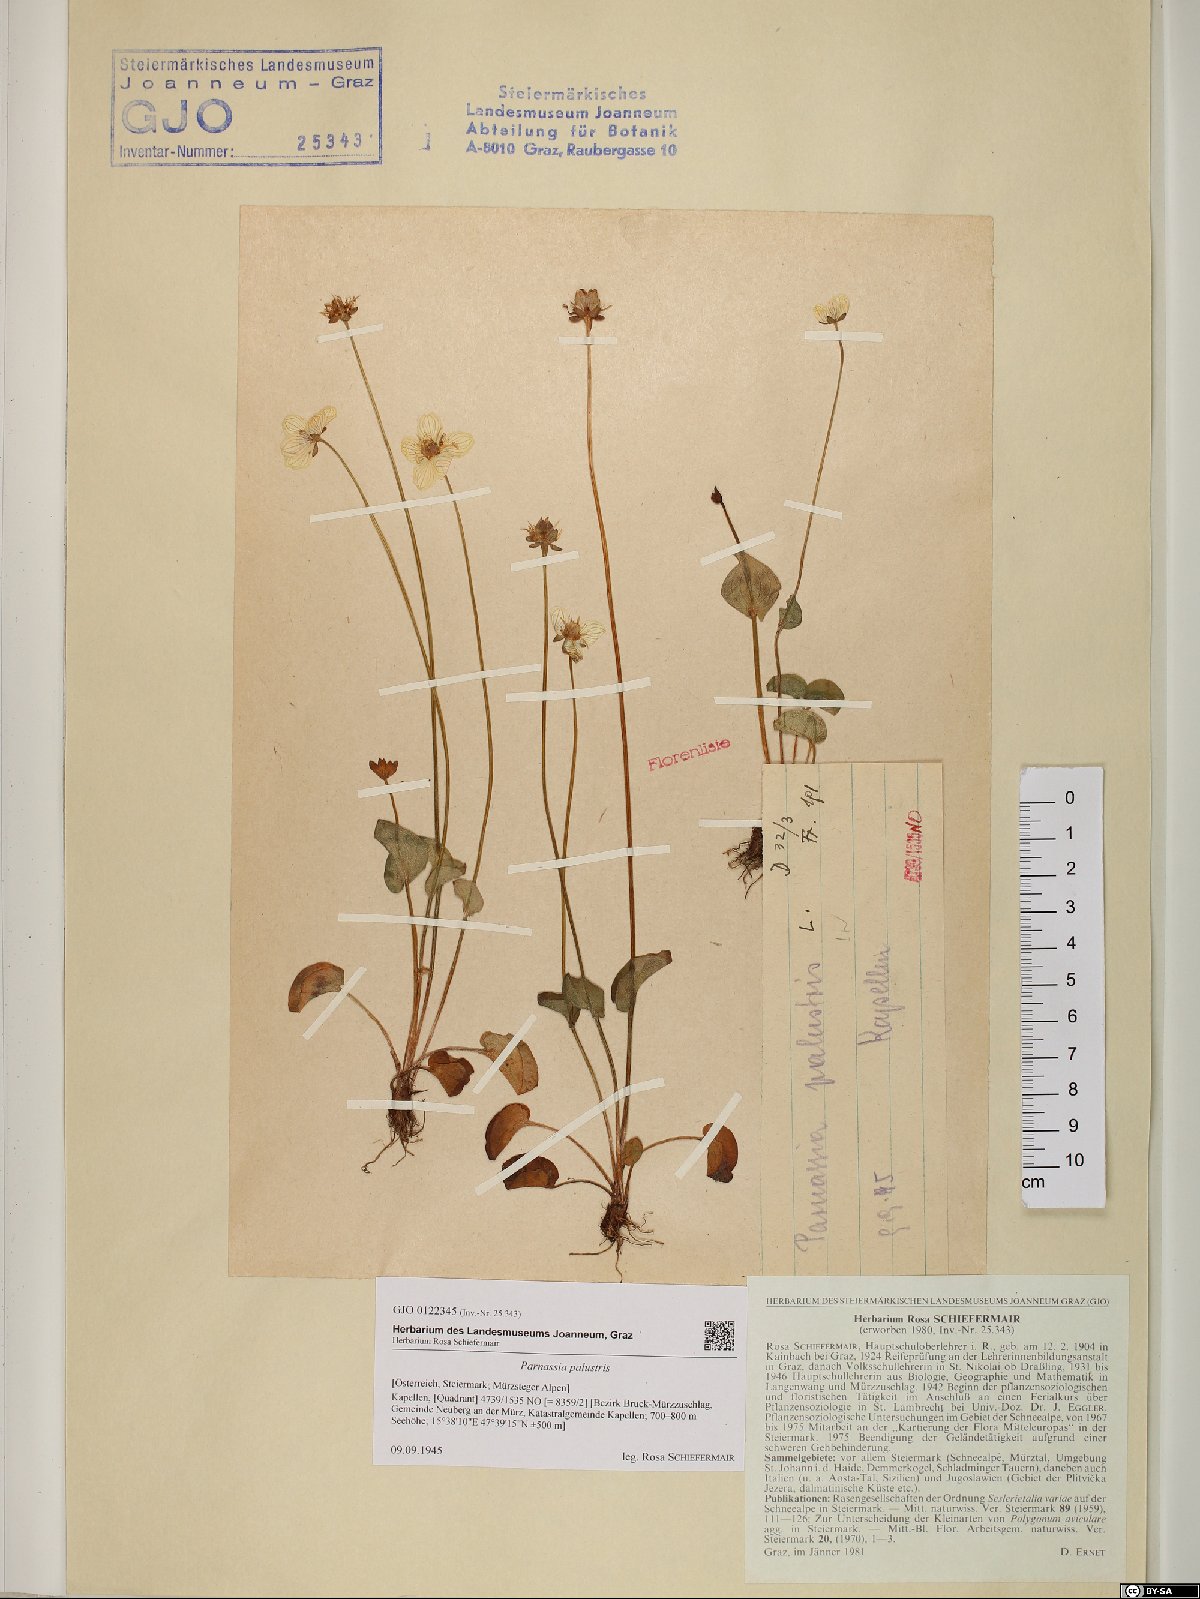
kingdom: Plantae
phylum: Tracheophyta
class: Magnoliopsida
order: Celastrales
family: Parnassiaceae
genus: Parnassia
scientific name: Parnassia palustris
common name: Grass-of-parnassus
